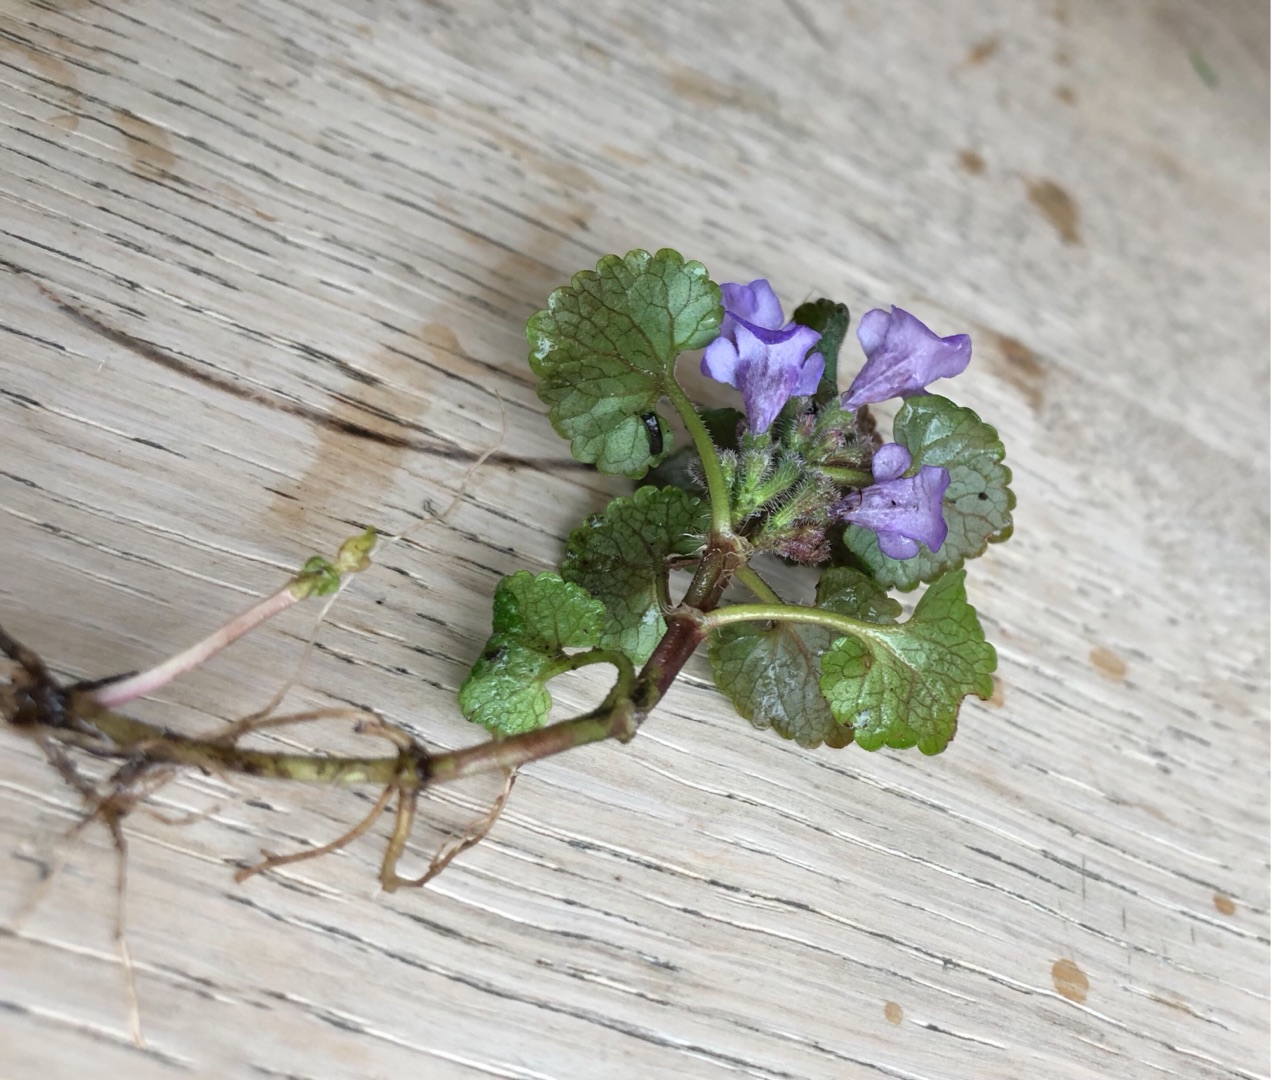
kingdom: Plantae
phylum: Tracheophyta
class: Magnoliopsida
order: Lamiales
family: Lamiaceae
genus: Glechoma
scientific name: Glechoma hederacea
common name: Korsknap
